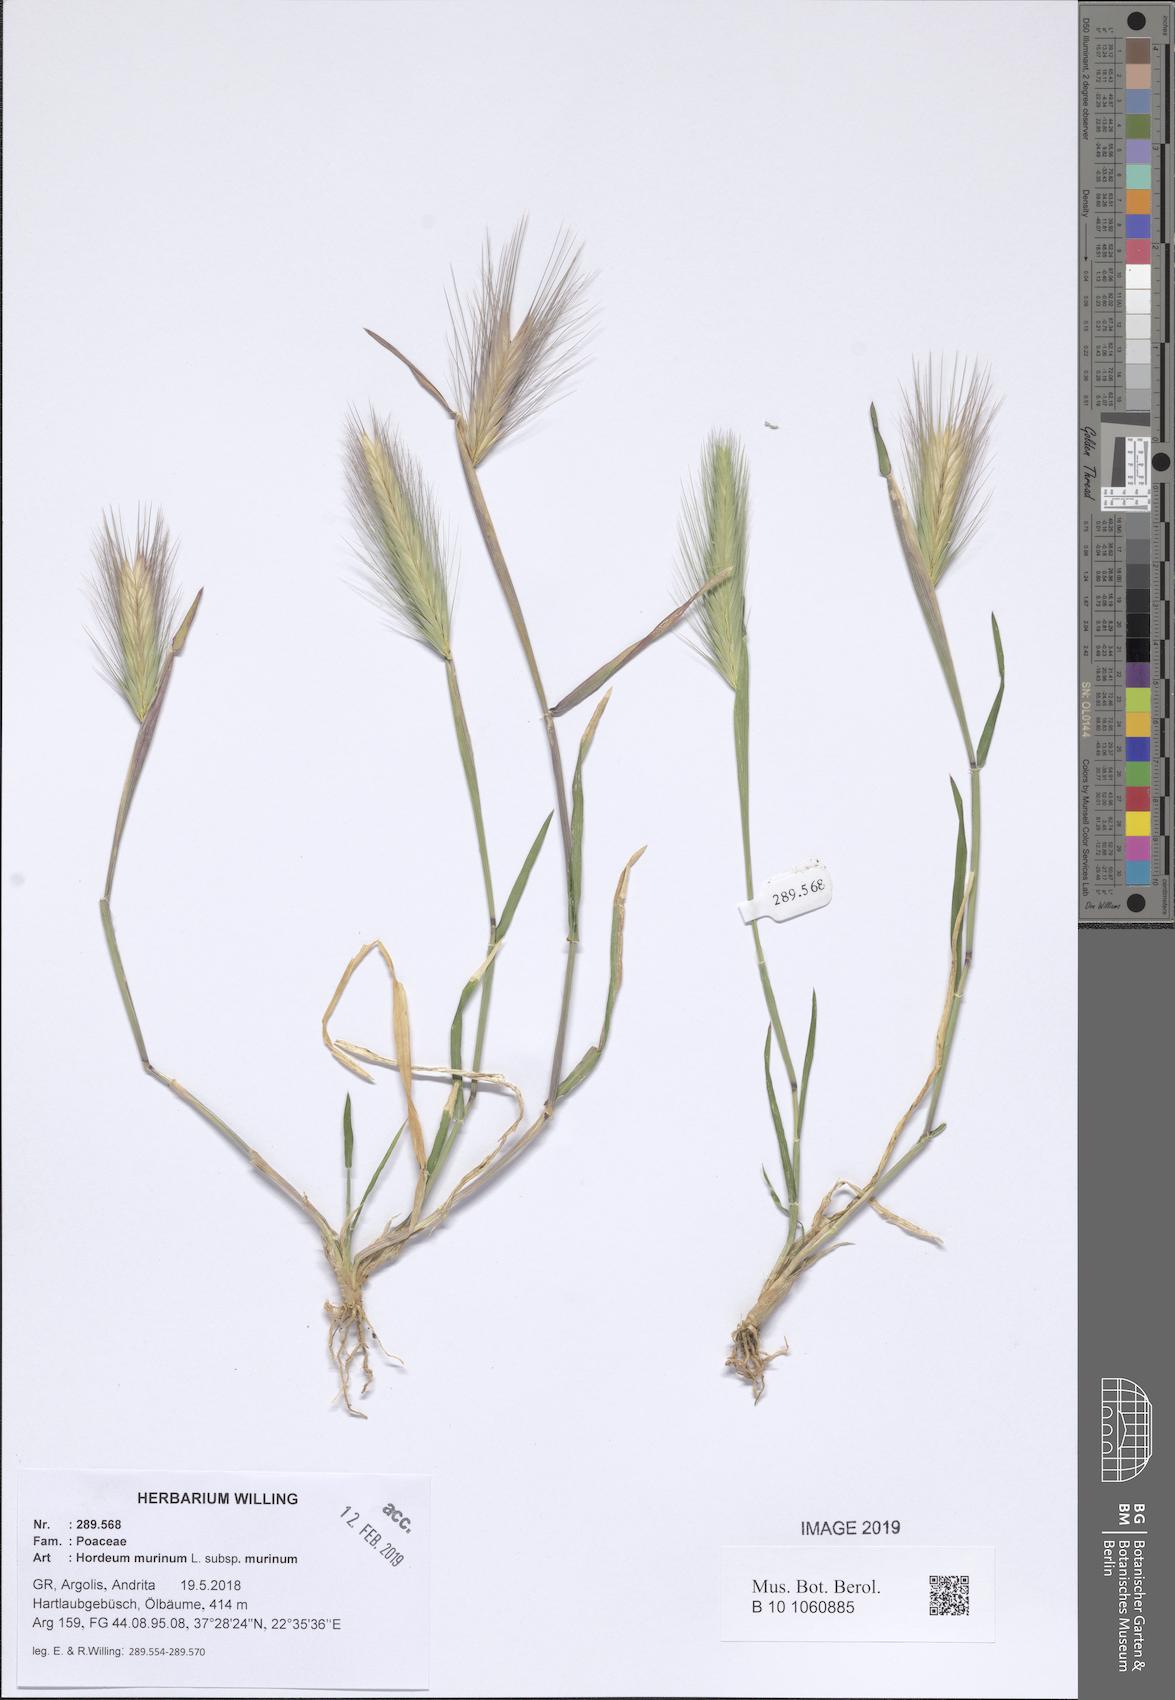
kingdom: Plantae
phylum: Tracheophyta
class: Liliopsida
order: Poales
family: Poaceae
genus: Hordeum
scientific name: Hordeum murinum
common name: Wall barley
